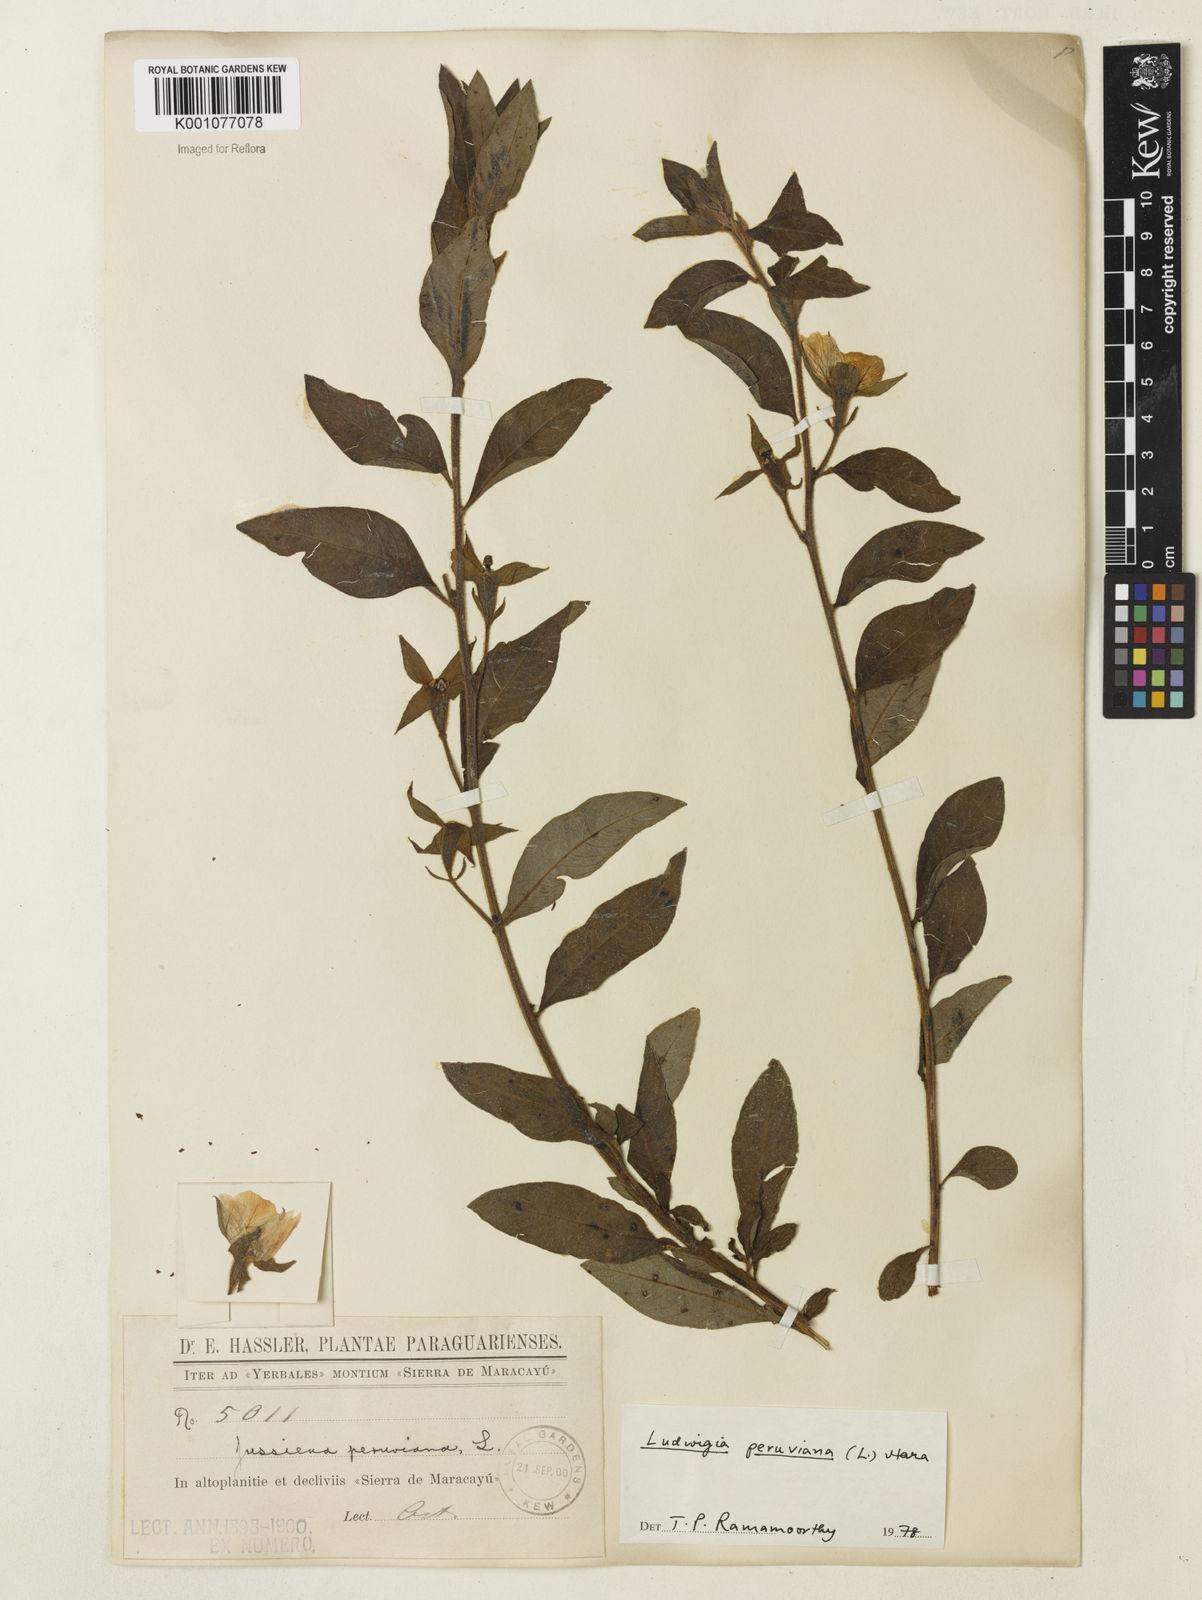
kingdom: Plantae
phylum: Tracheophyta
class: Magnoliopsida
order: Myrtales
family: Onagraceae
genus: Ludwigia
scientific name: Ludwigia peruviana
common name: Peruvian primrose-willow
